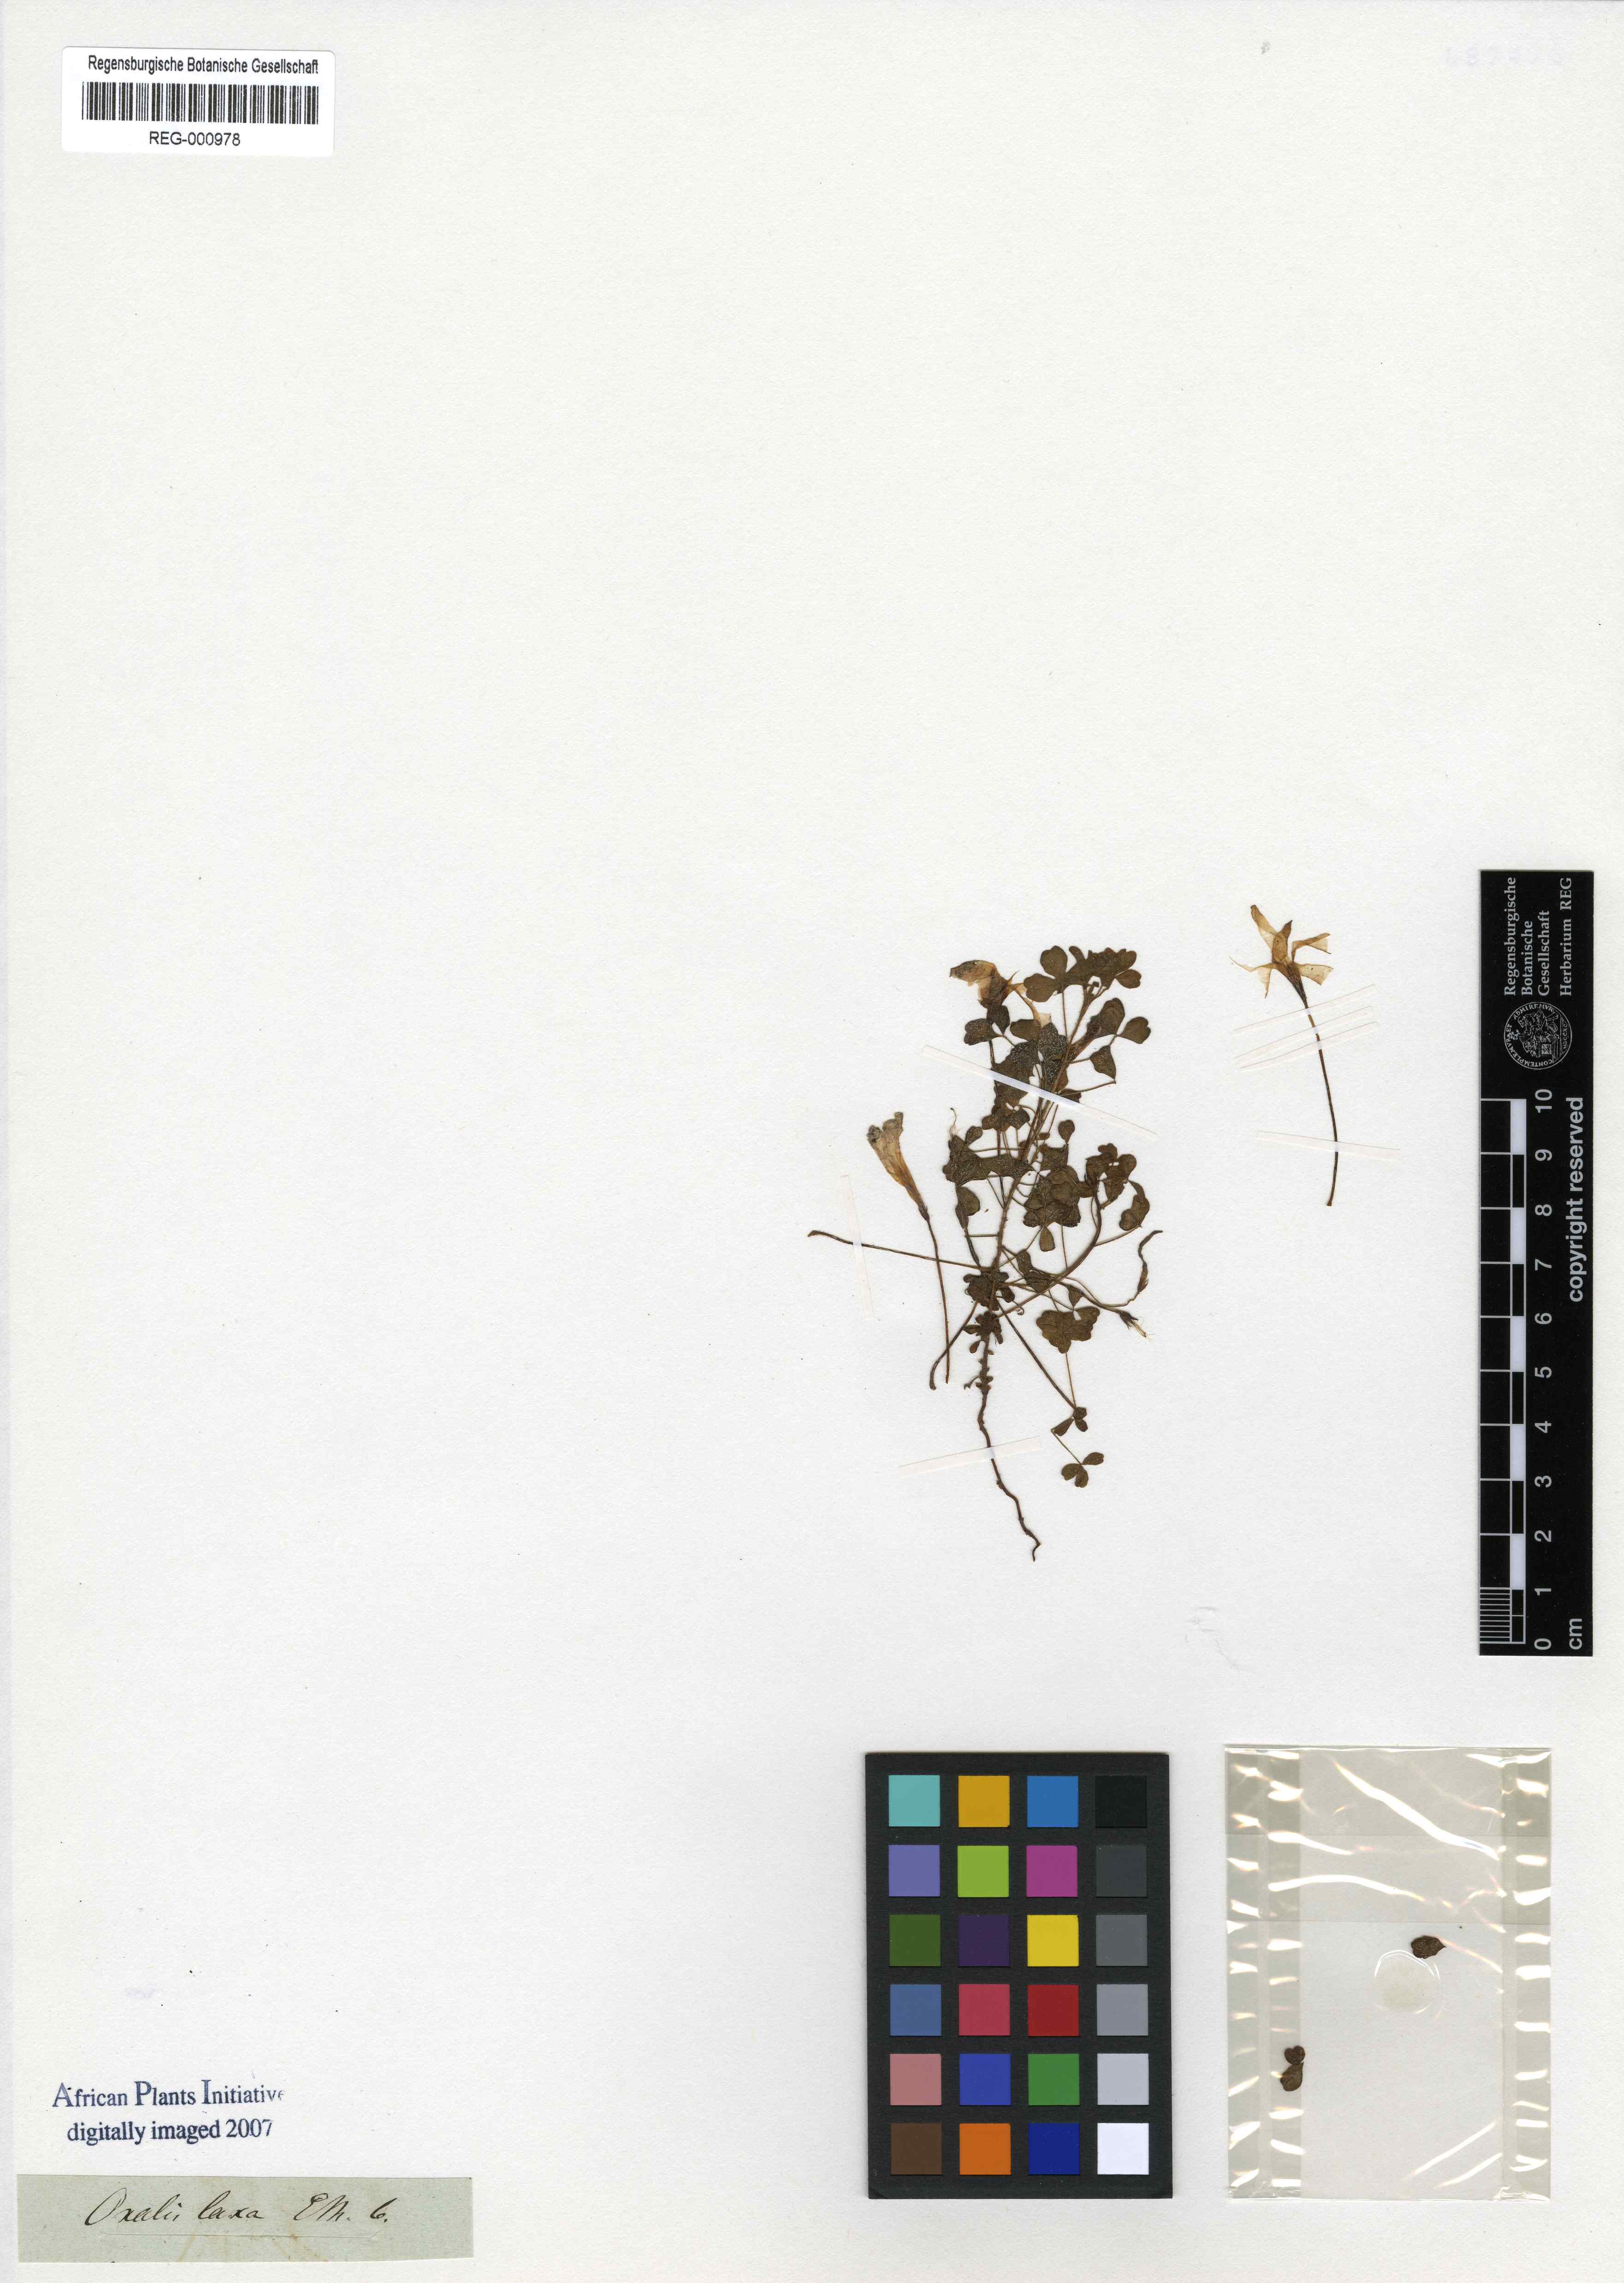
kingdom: Plantae
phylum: Tracheophyta
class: Magnoliopsida
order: Oxalidales
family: Oxalidaceae
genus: Oxalis
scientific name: Oxalis ebracteata
